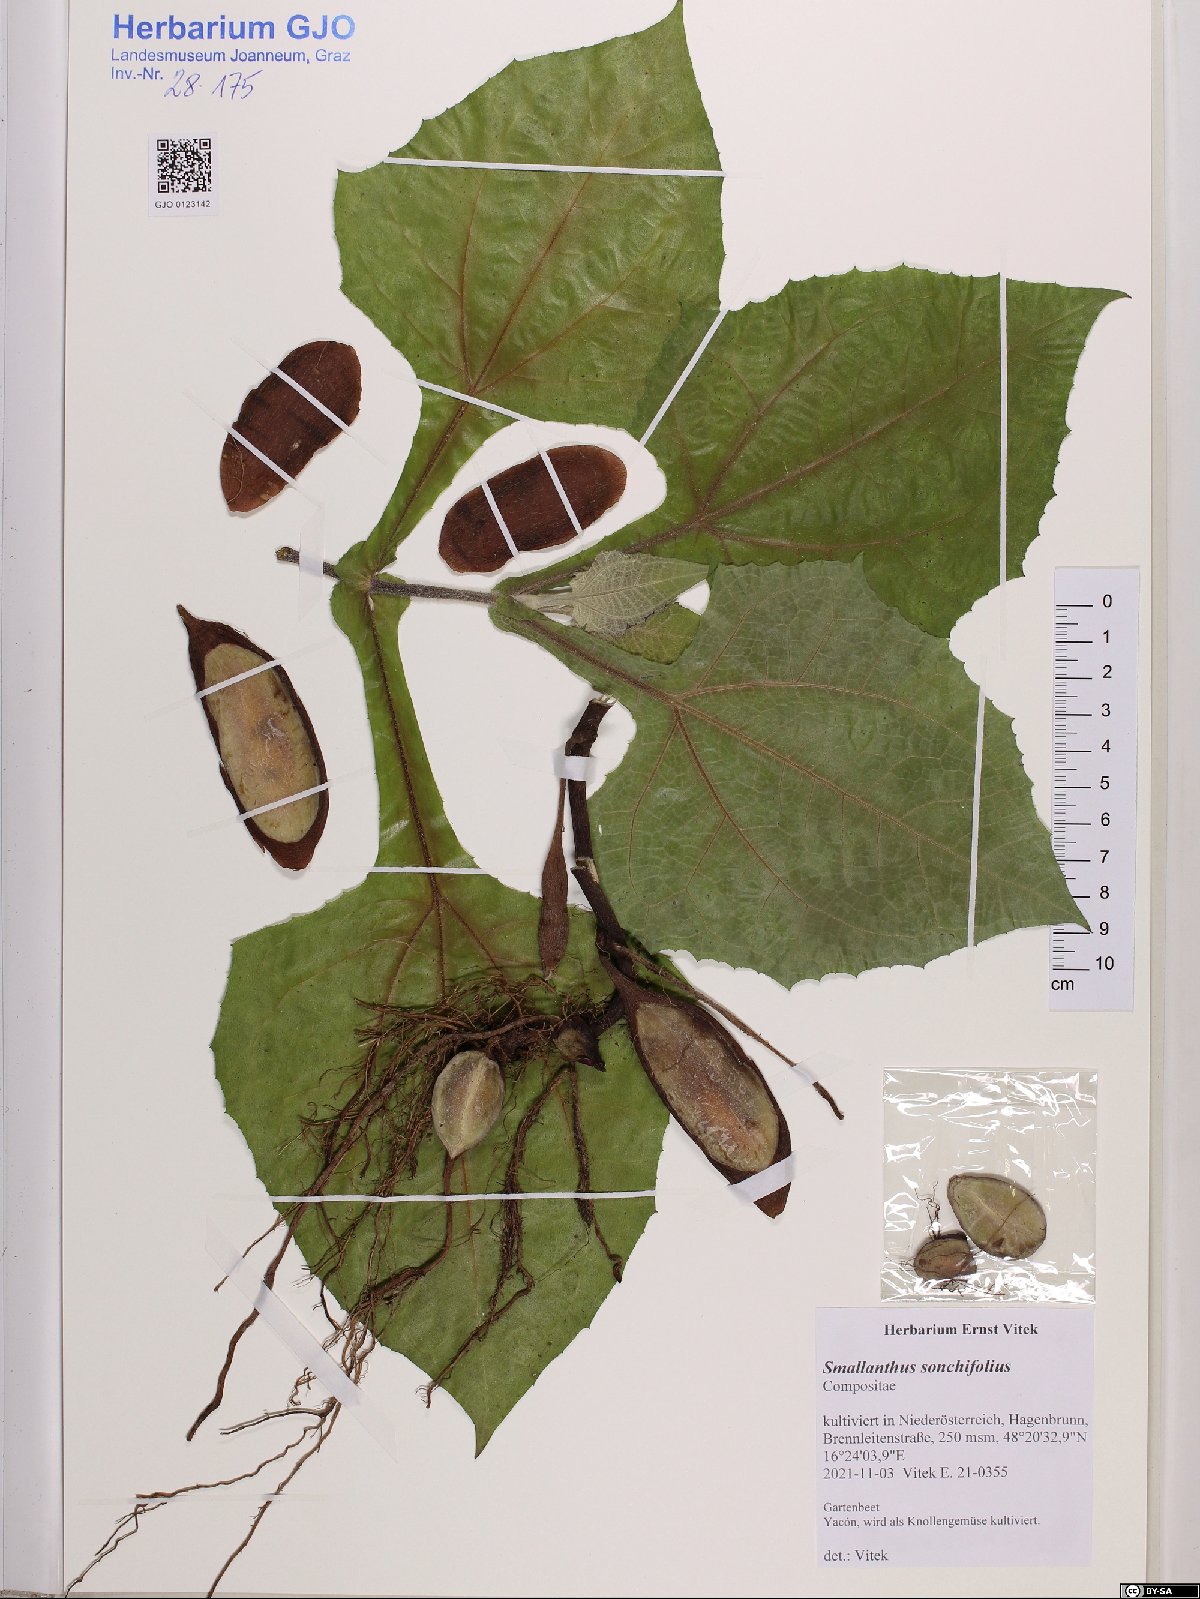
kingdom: Plantae
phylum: Tracheophyta
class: Magnoliopsida
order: Asterales
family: Asteraceae
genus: Smallanthus
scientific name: Smallanthus sonchifolius
